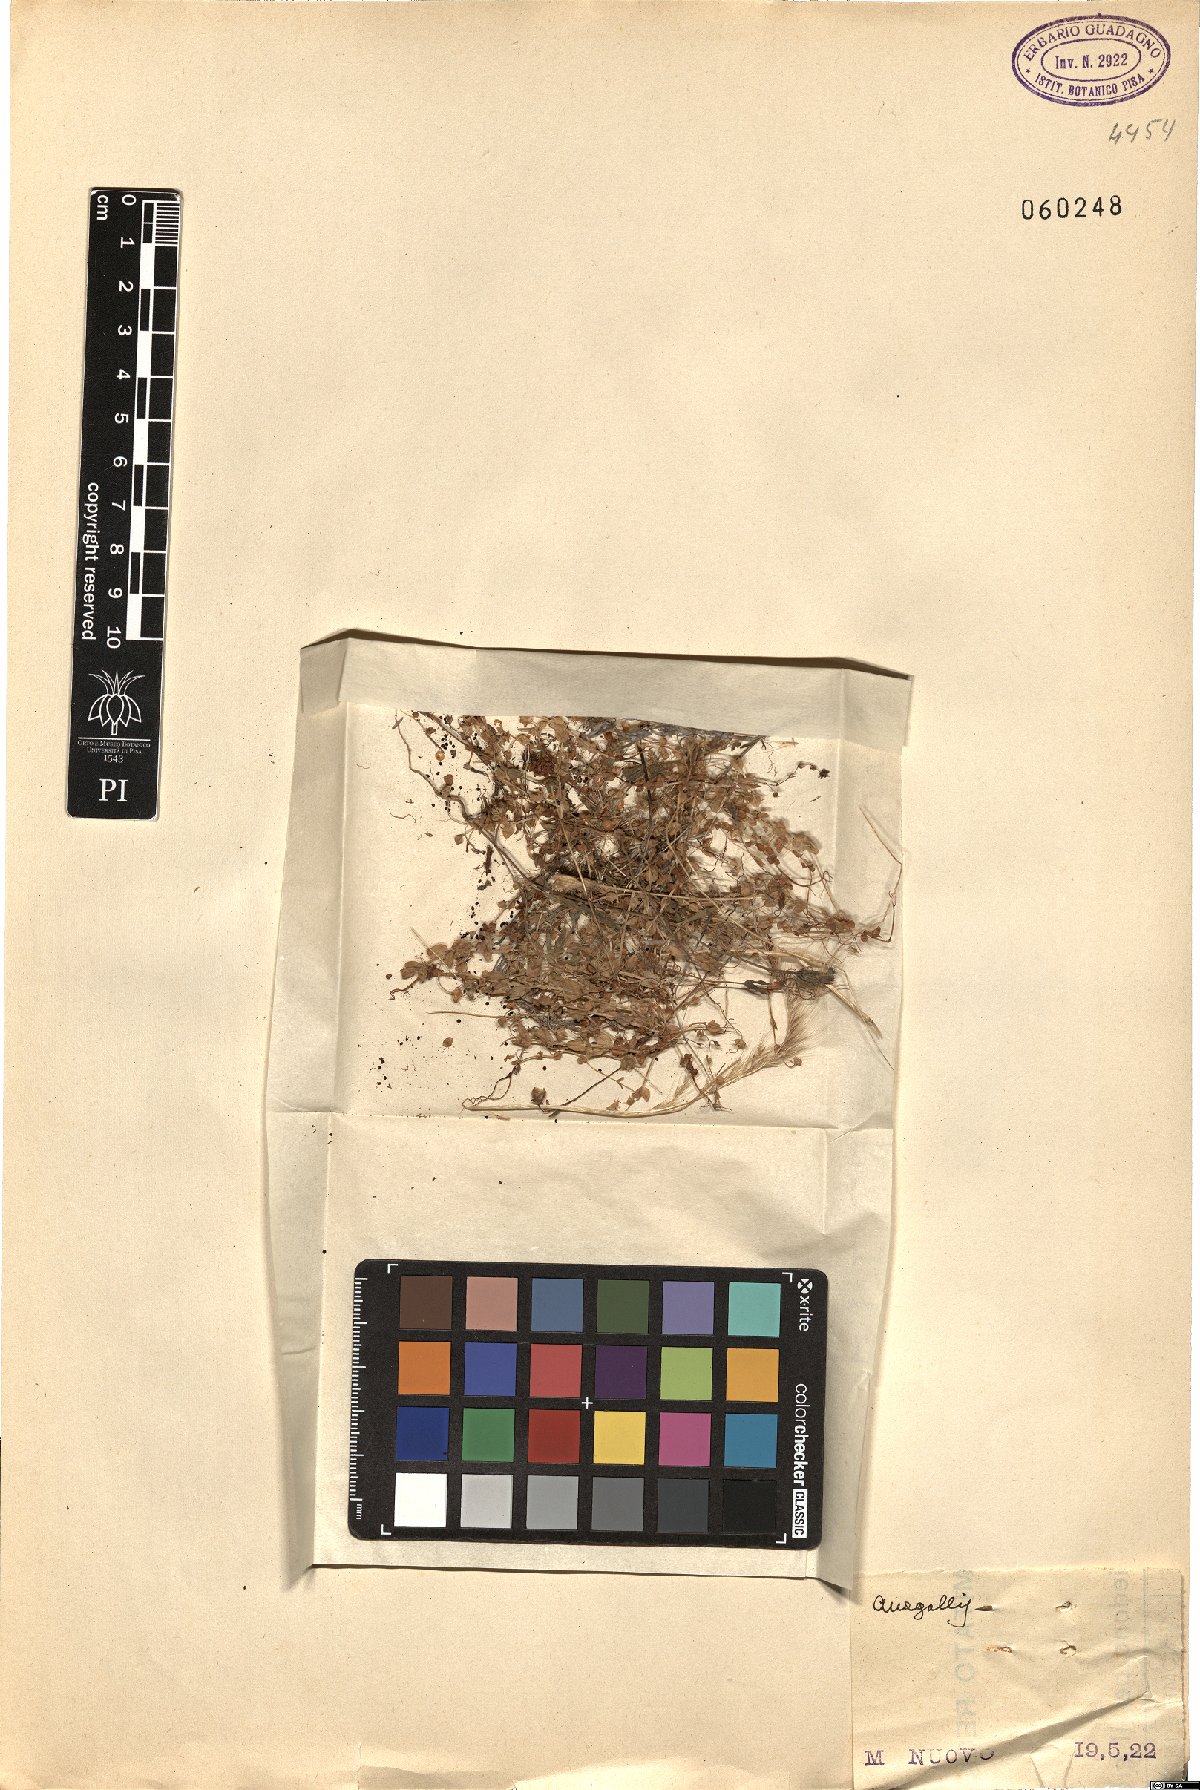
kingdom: Plantae
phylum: Tracheophyta
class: Magnoliopsida
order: Ericales
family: Primulaceae
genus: Lysimachia
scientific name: Lysimachia Anagallis spec
